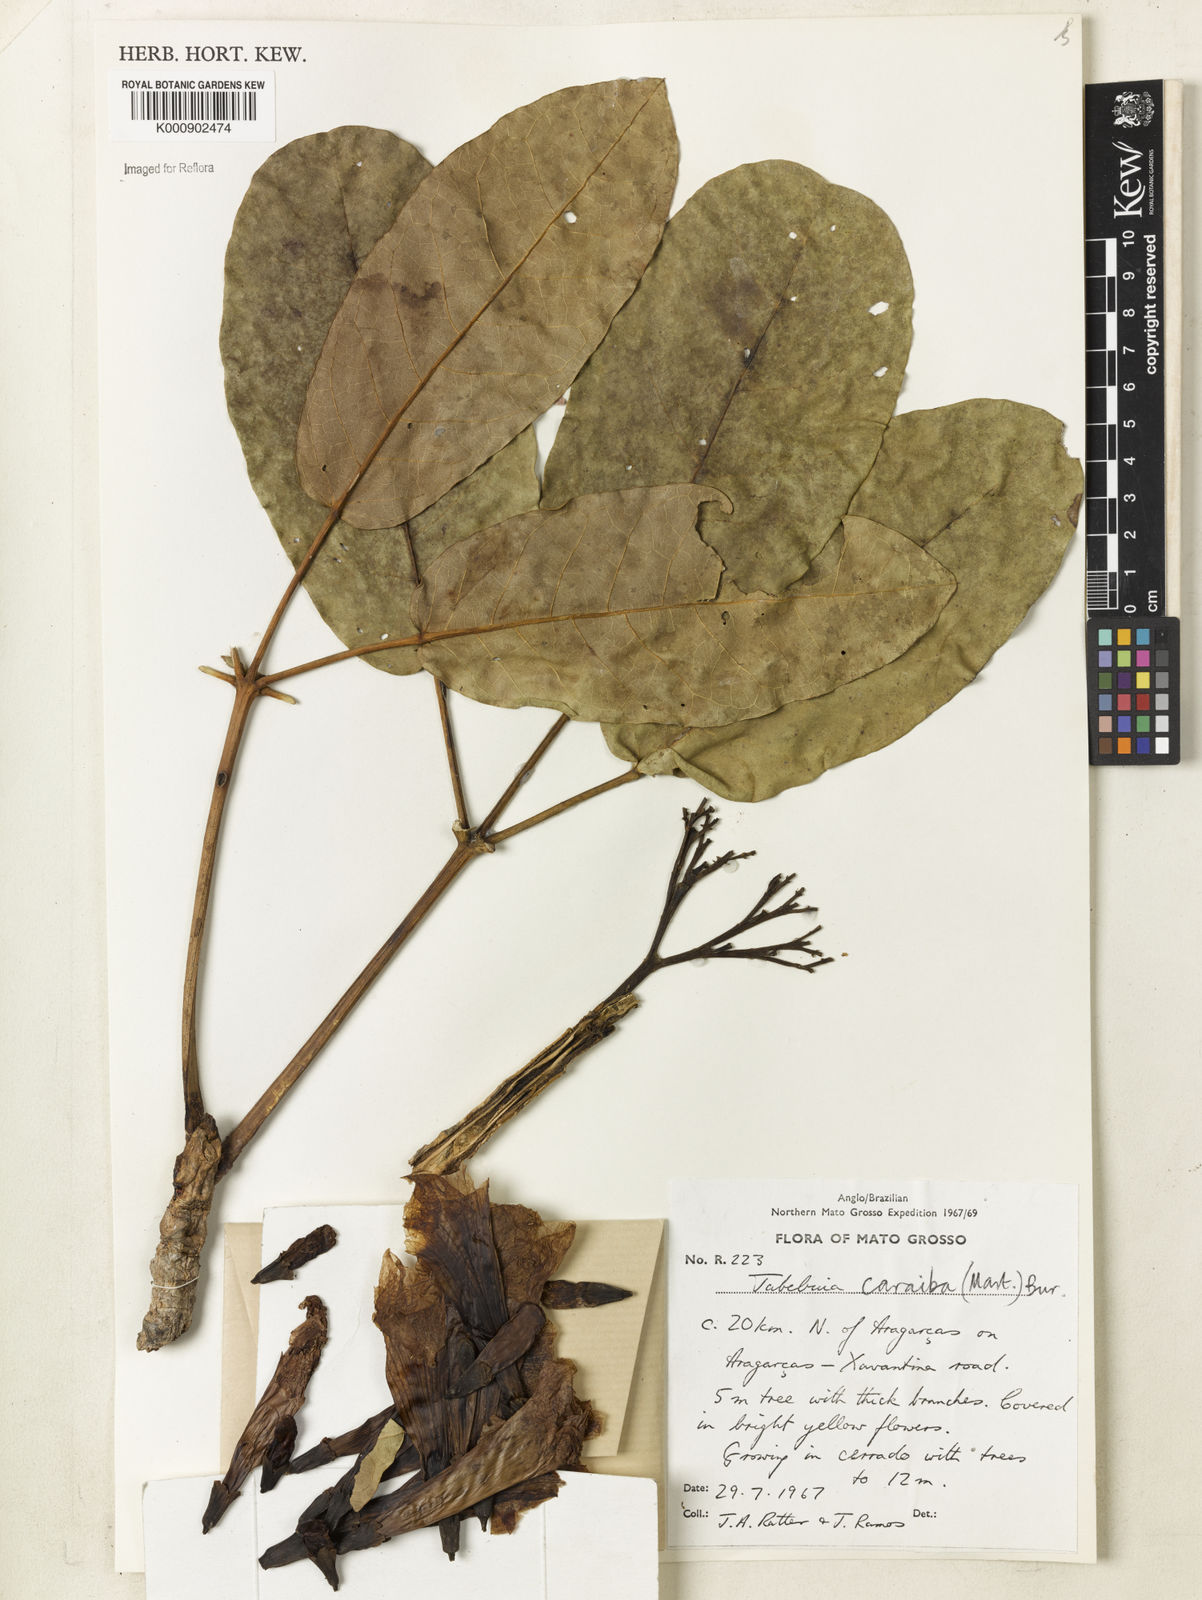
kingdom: Plantae
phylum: Tracheophyta
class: Magnoliopsida
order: Lamiales
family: Bignoniaceae
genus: Tabebuia
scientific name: Tabebuia aurea
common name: Caribbean trumpet-tree
